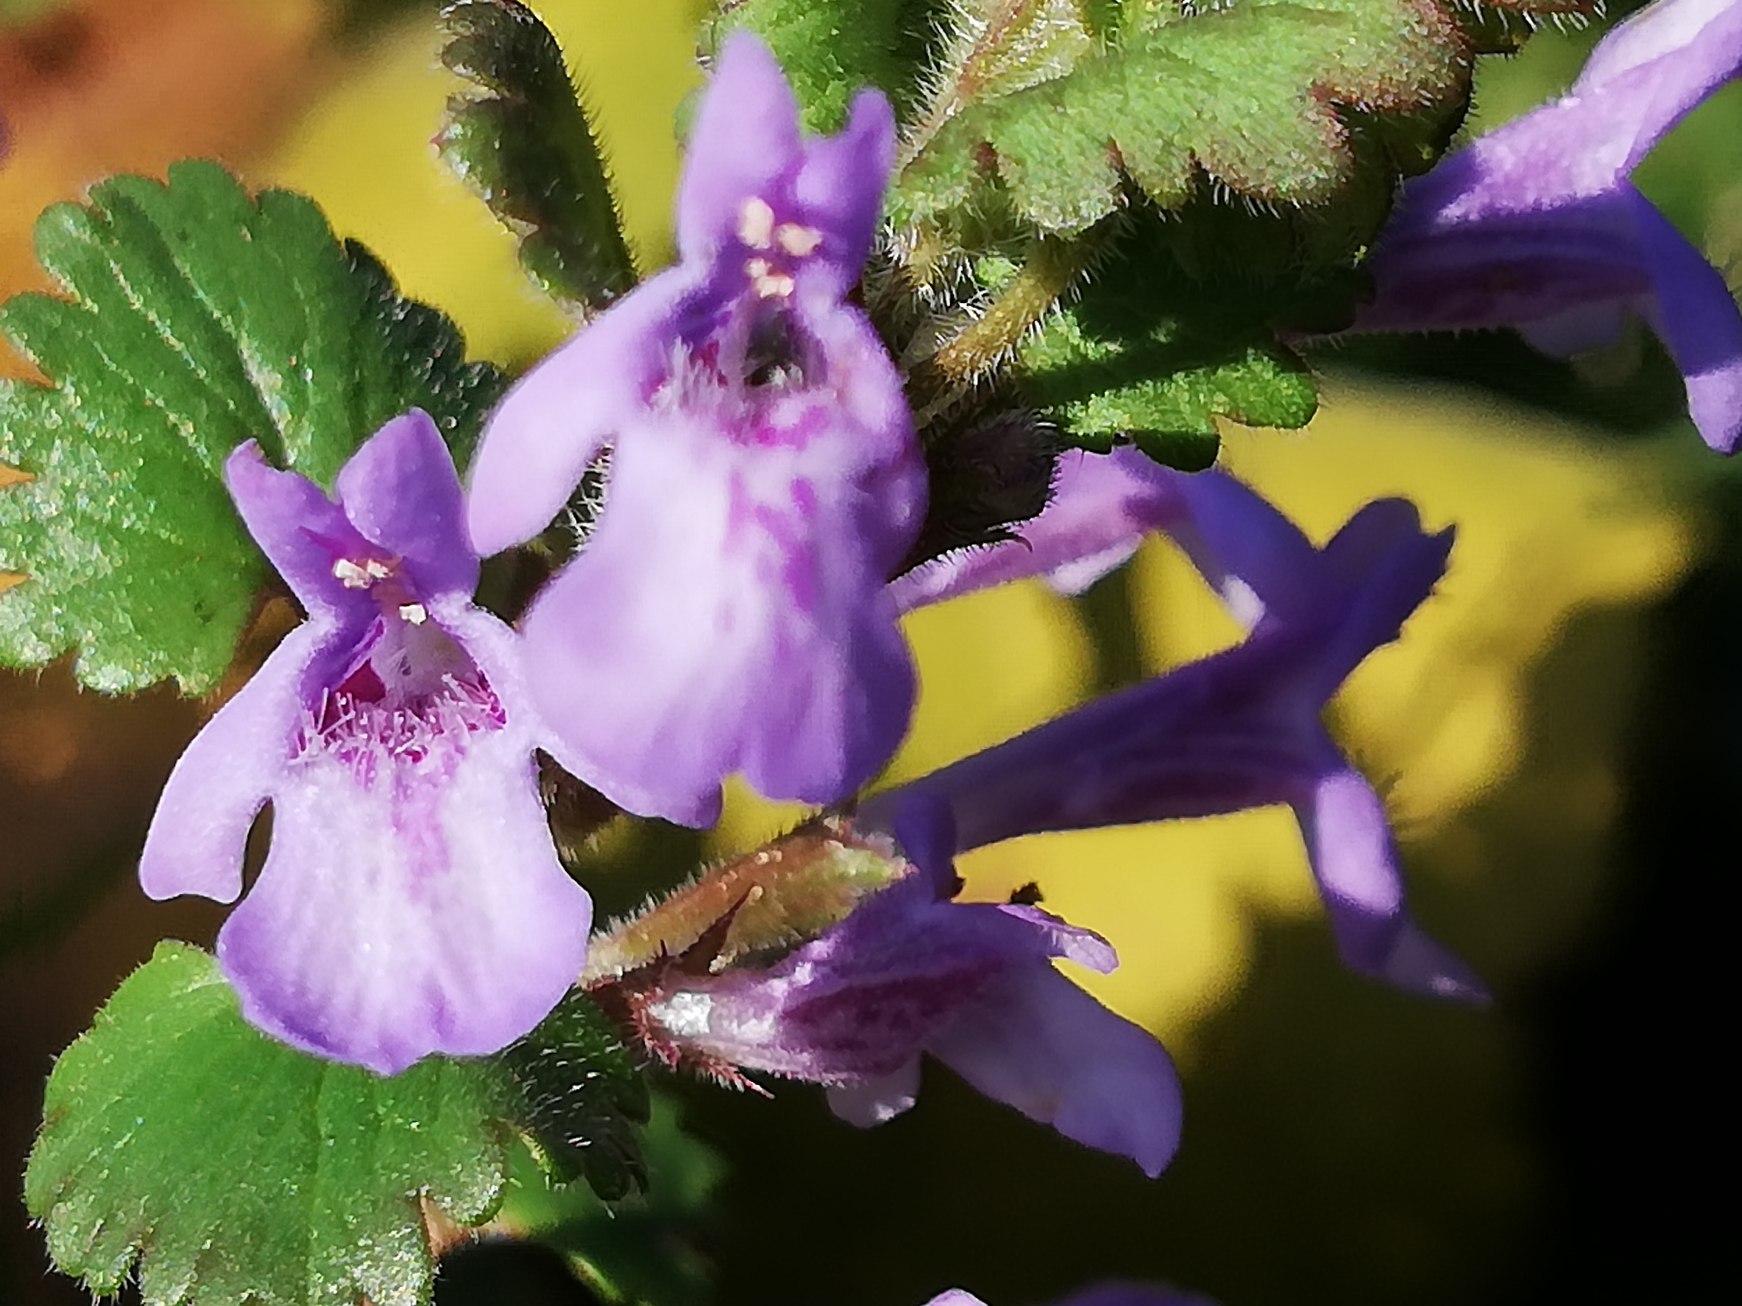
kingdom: Plantae
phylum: Tracheophyta
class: Magnoliopsida
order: Lamiales
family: Lamiaceae
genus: Glechoma
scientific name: Glechoma hederacea
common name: Korsknap
